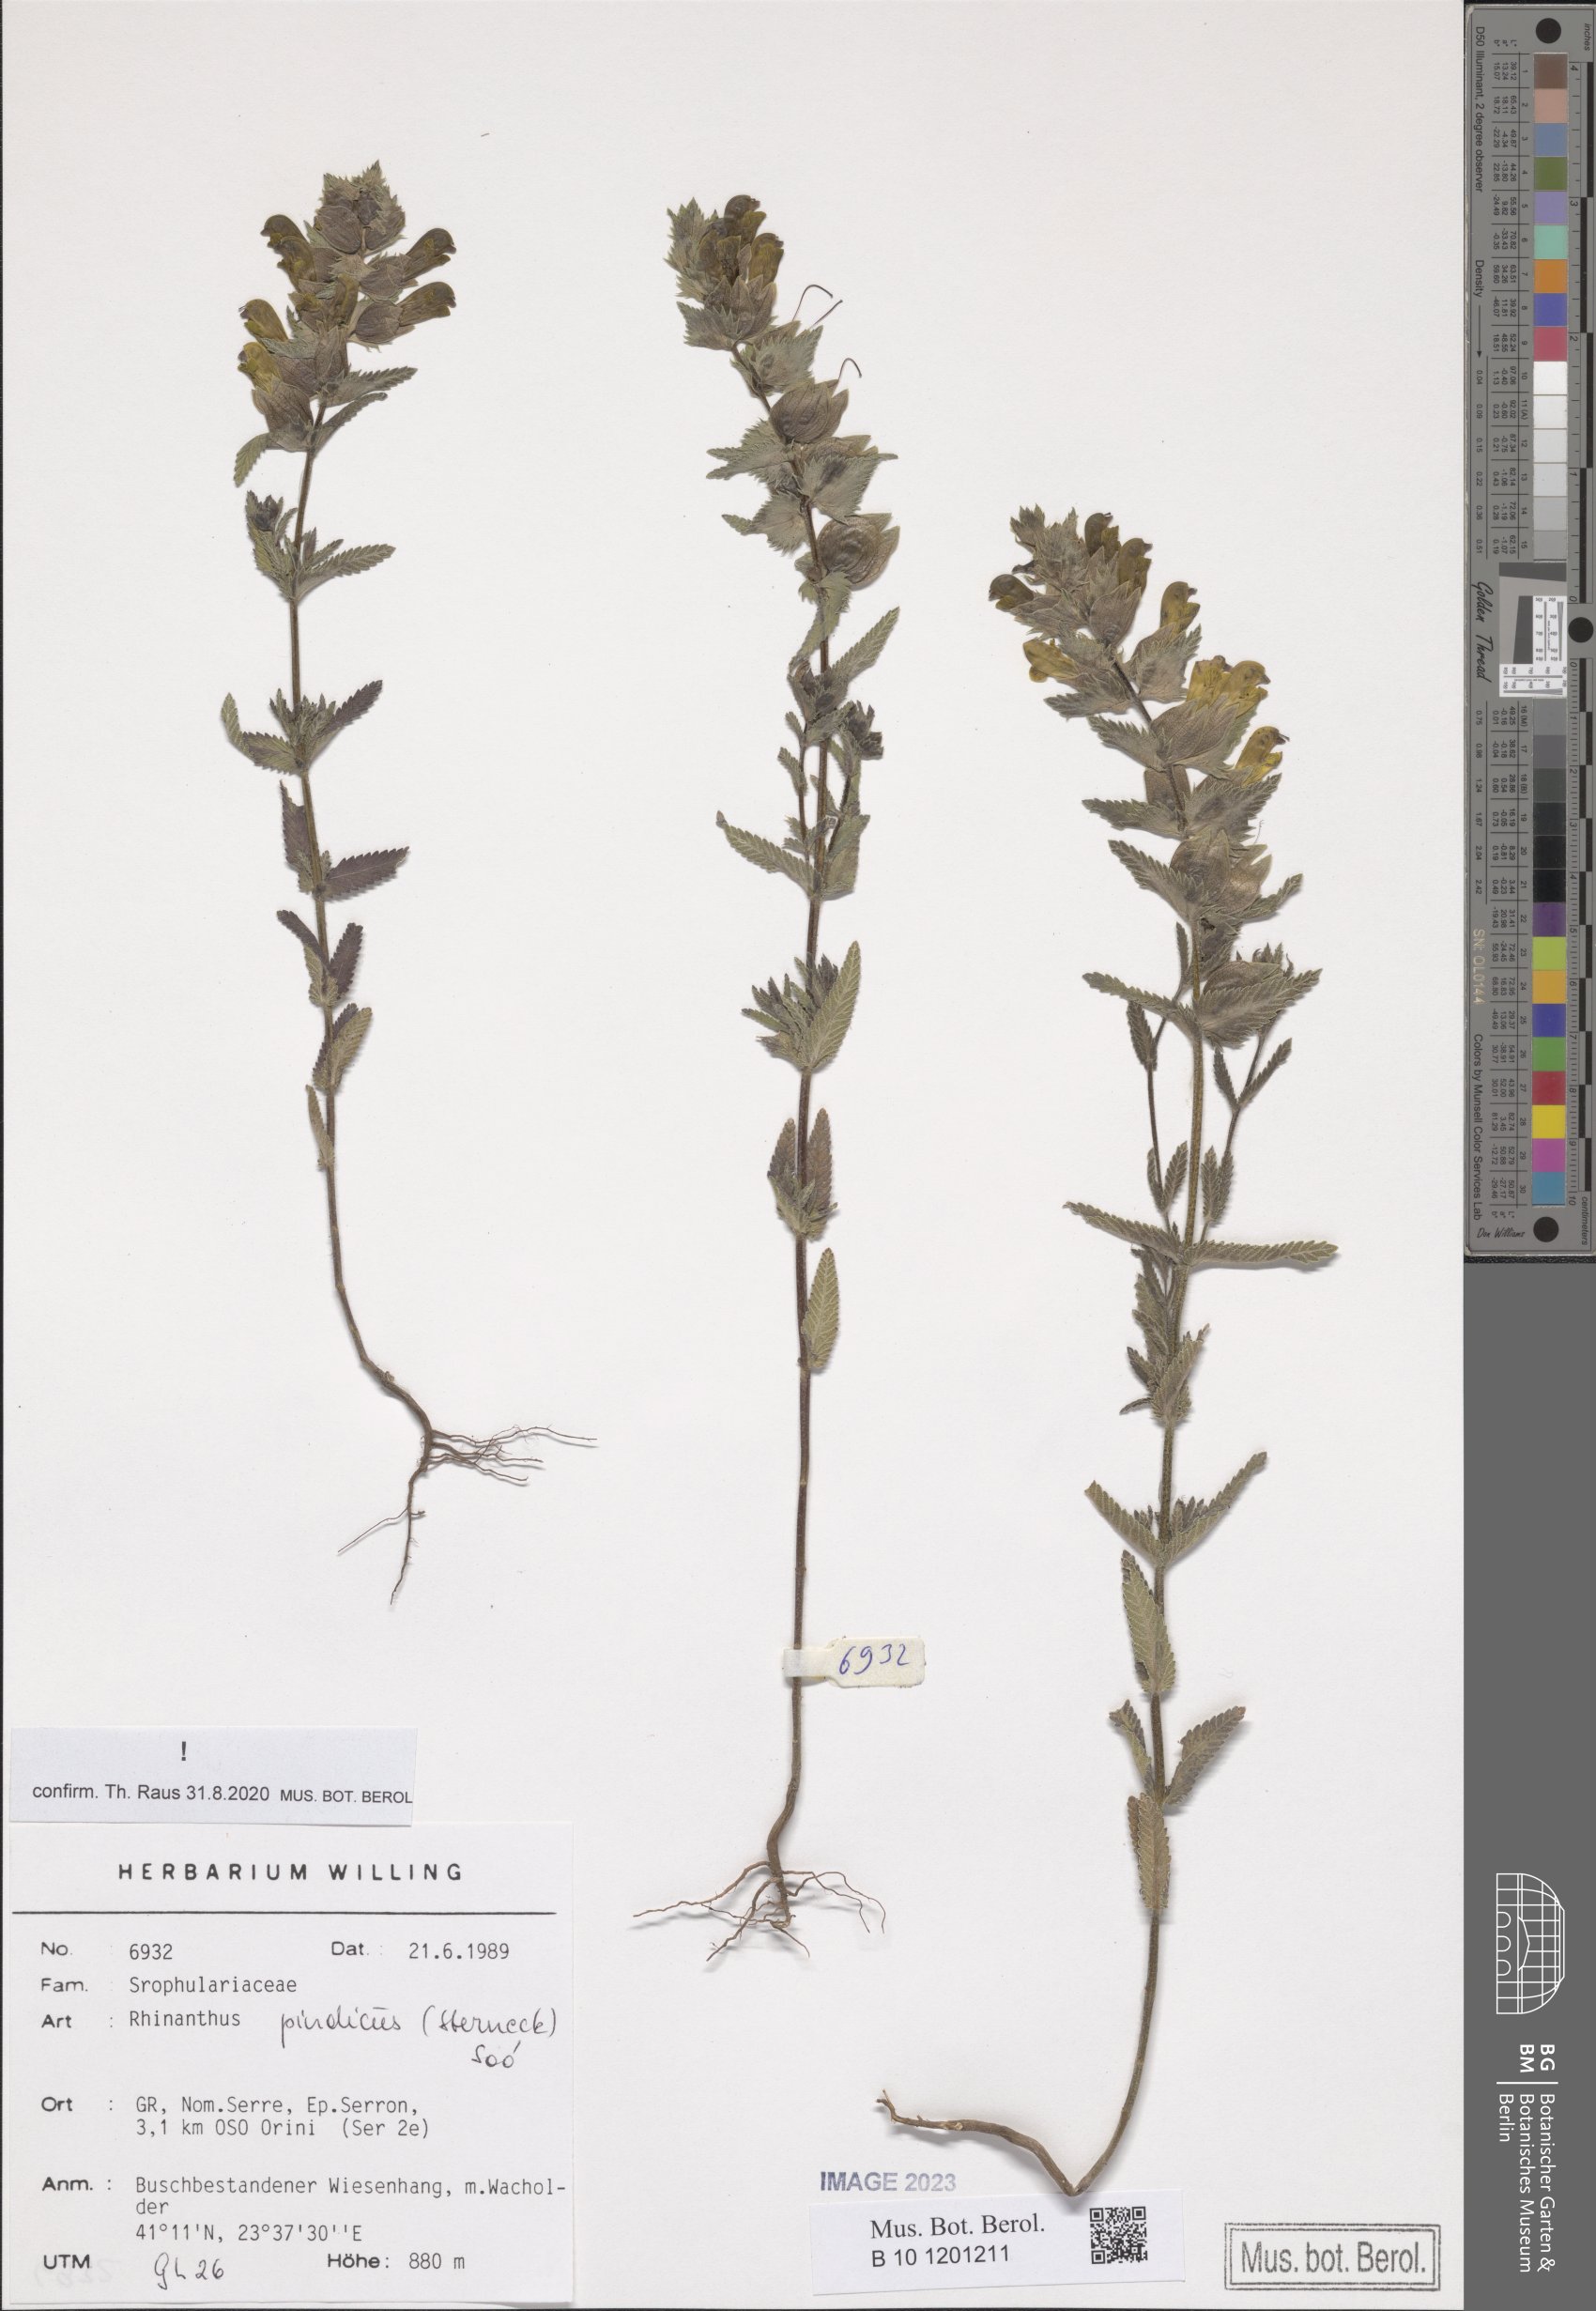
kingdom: Plantae
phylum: Tracheophyta
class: Magnoliopsida
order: Lamiales
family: Orobanchaceae
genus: Rhinanthus
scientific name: Rhinanthus pindicus
